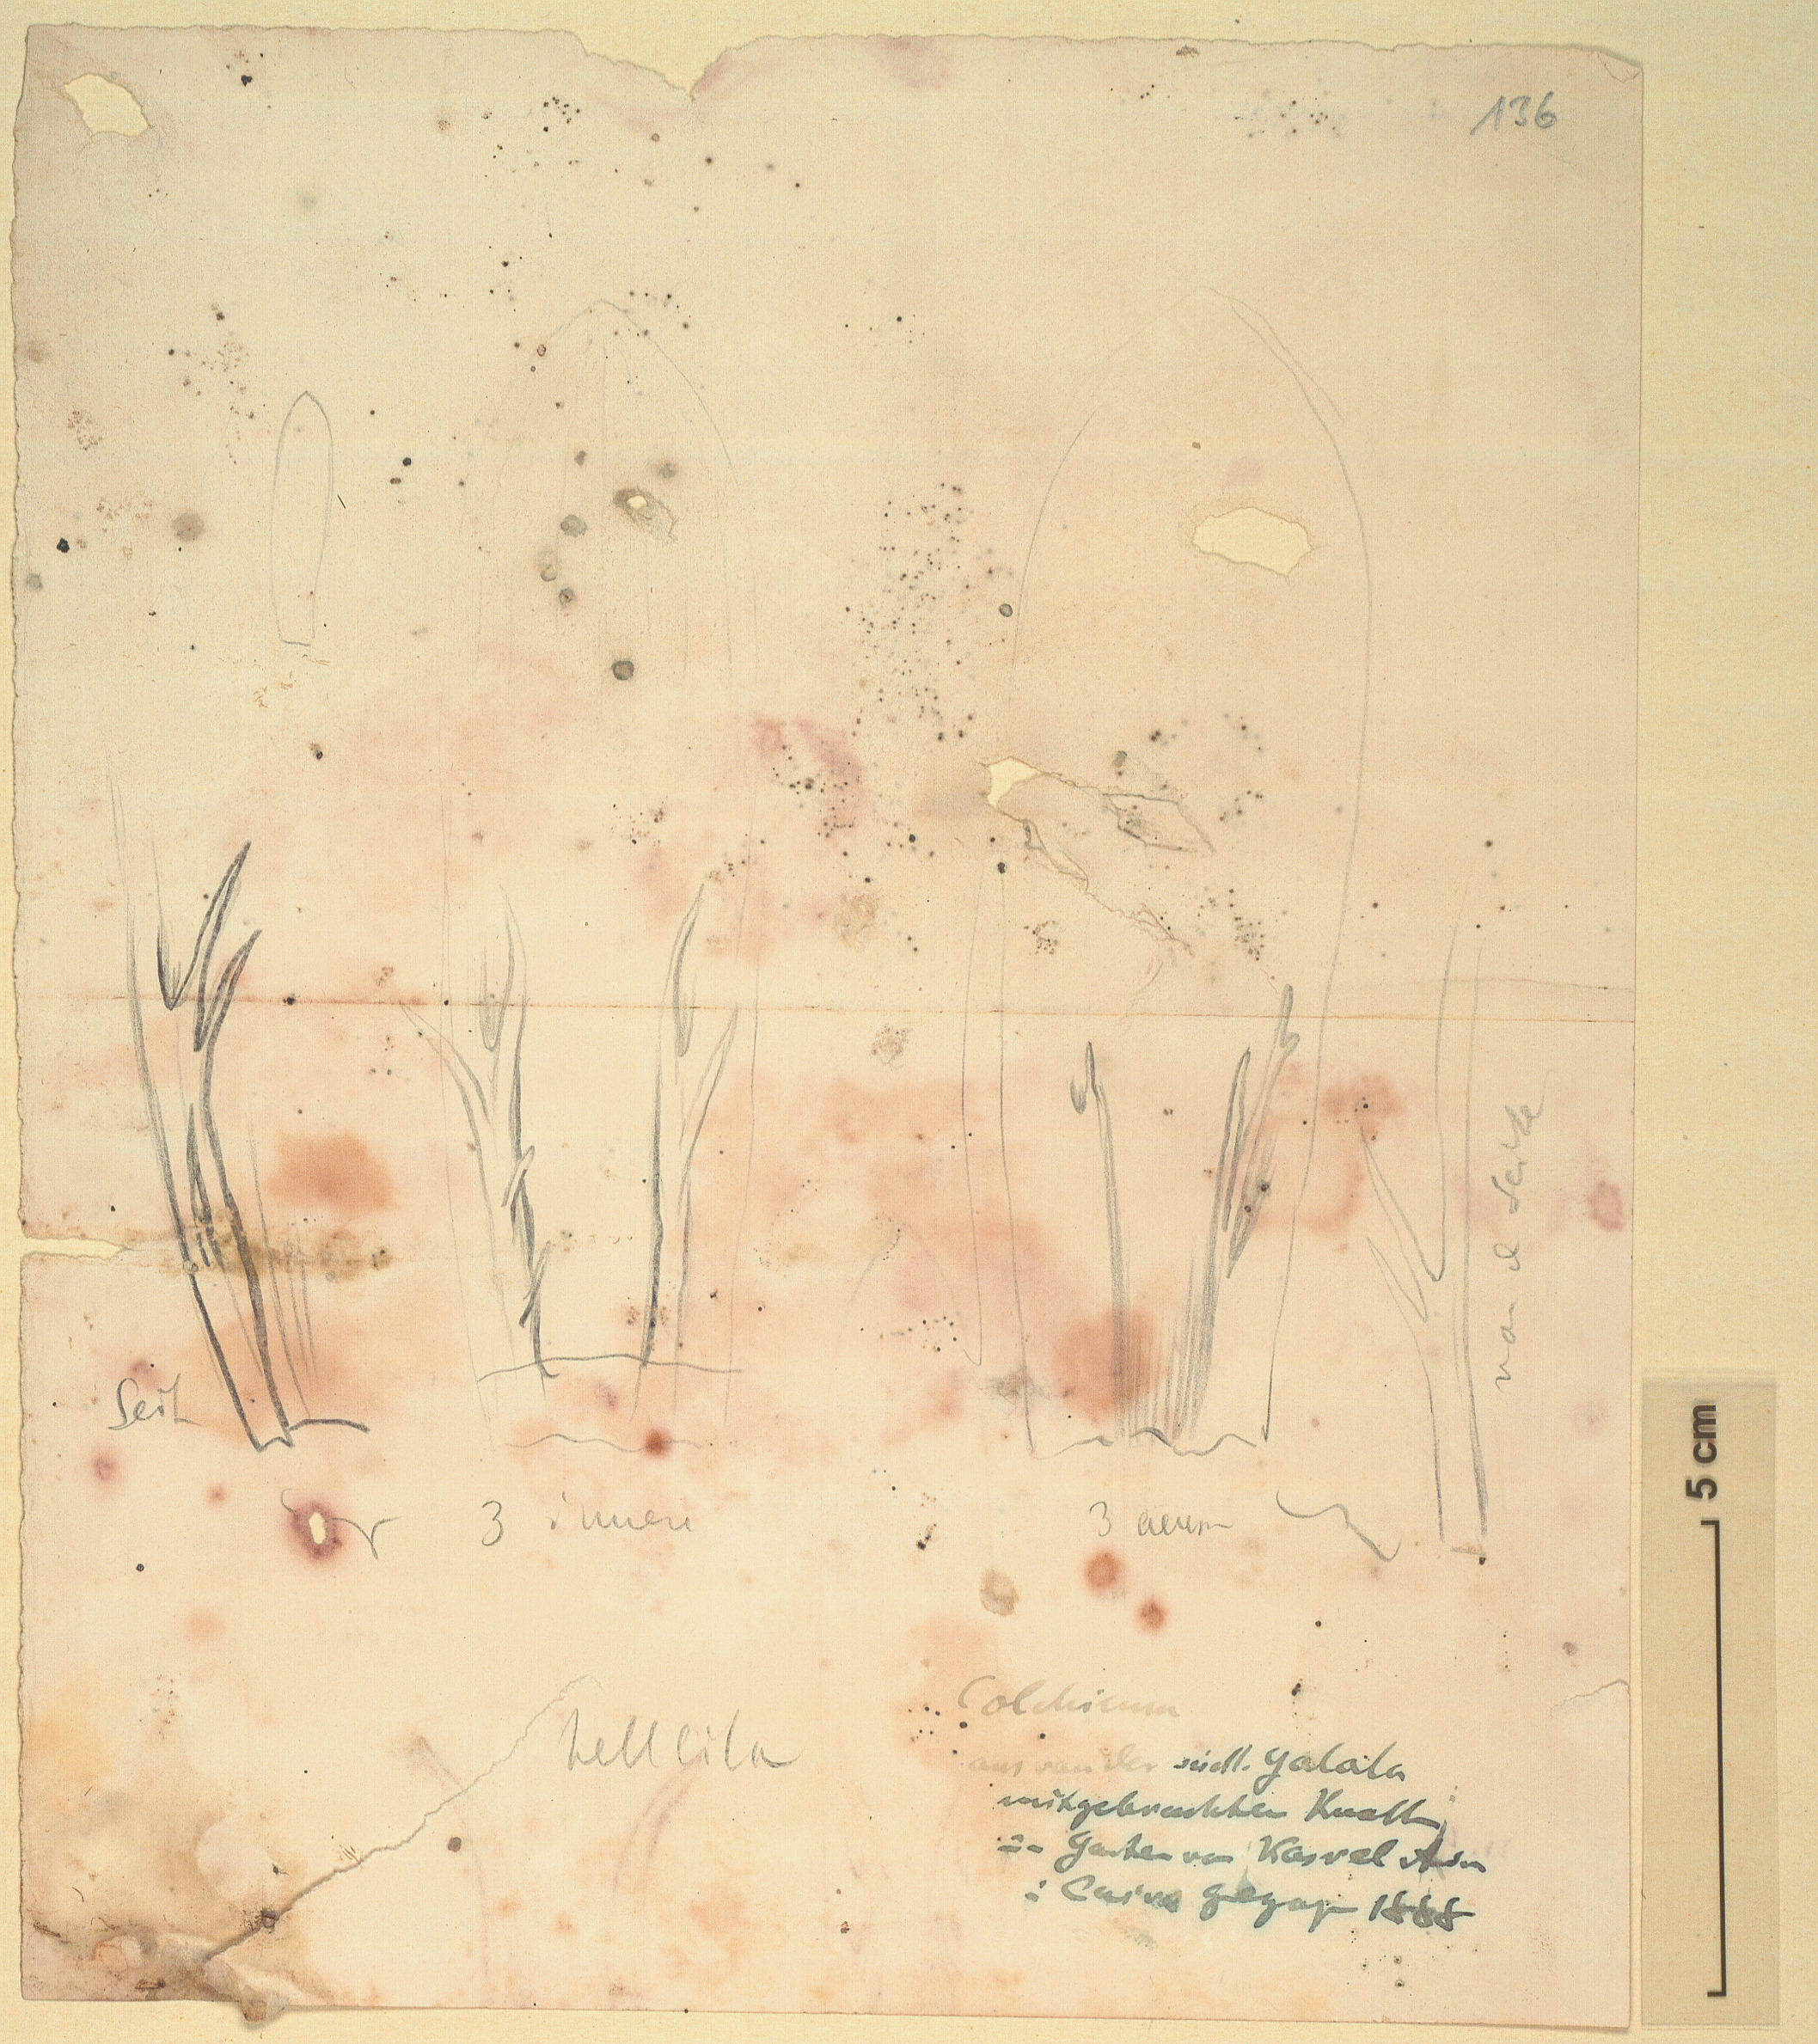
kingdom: Plantae
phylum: Tracheophyta
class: Liliopsida
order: Liliales
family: Colchicaceae
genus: Colchicum
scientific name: Colchicum
